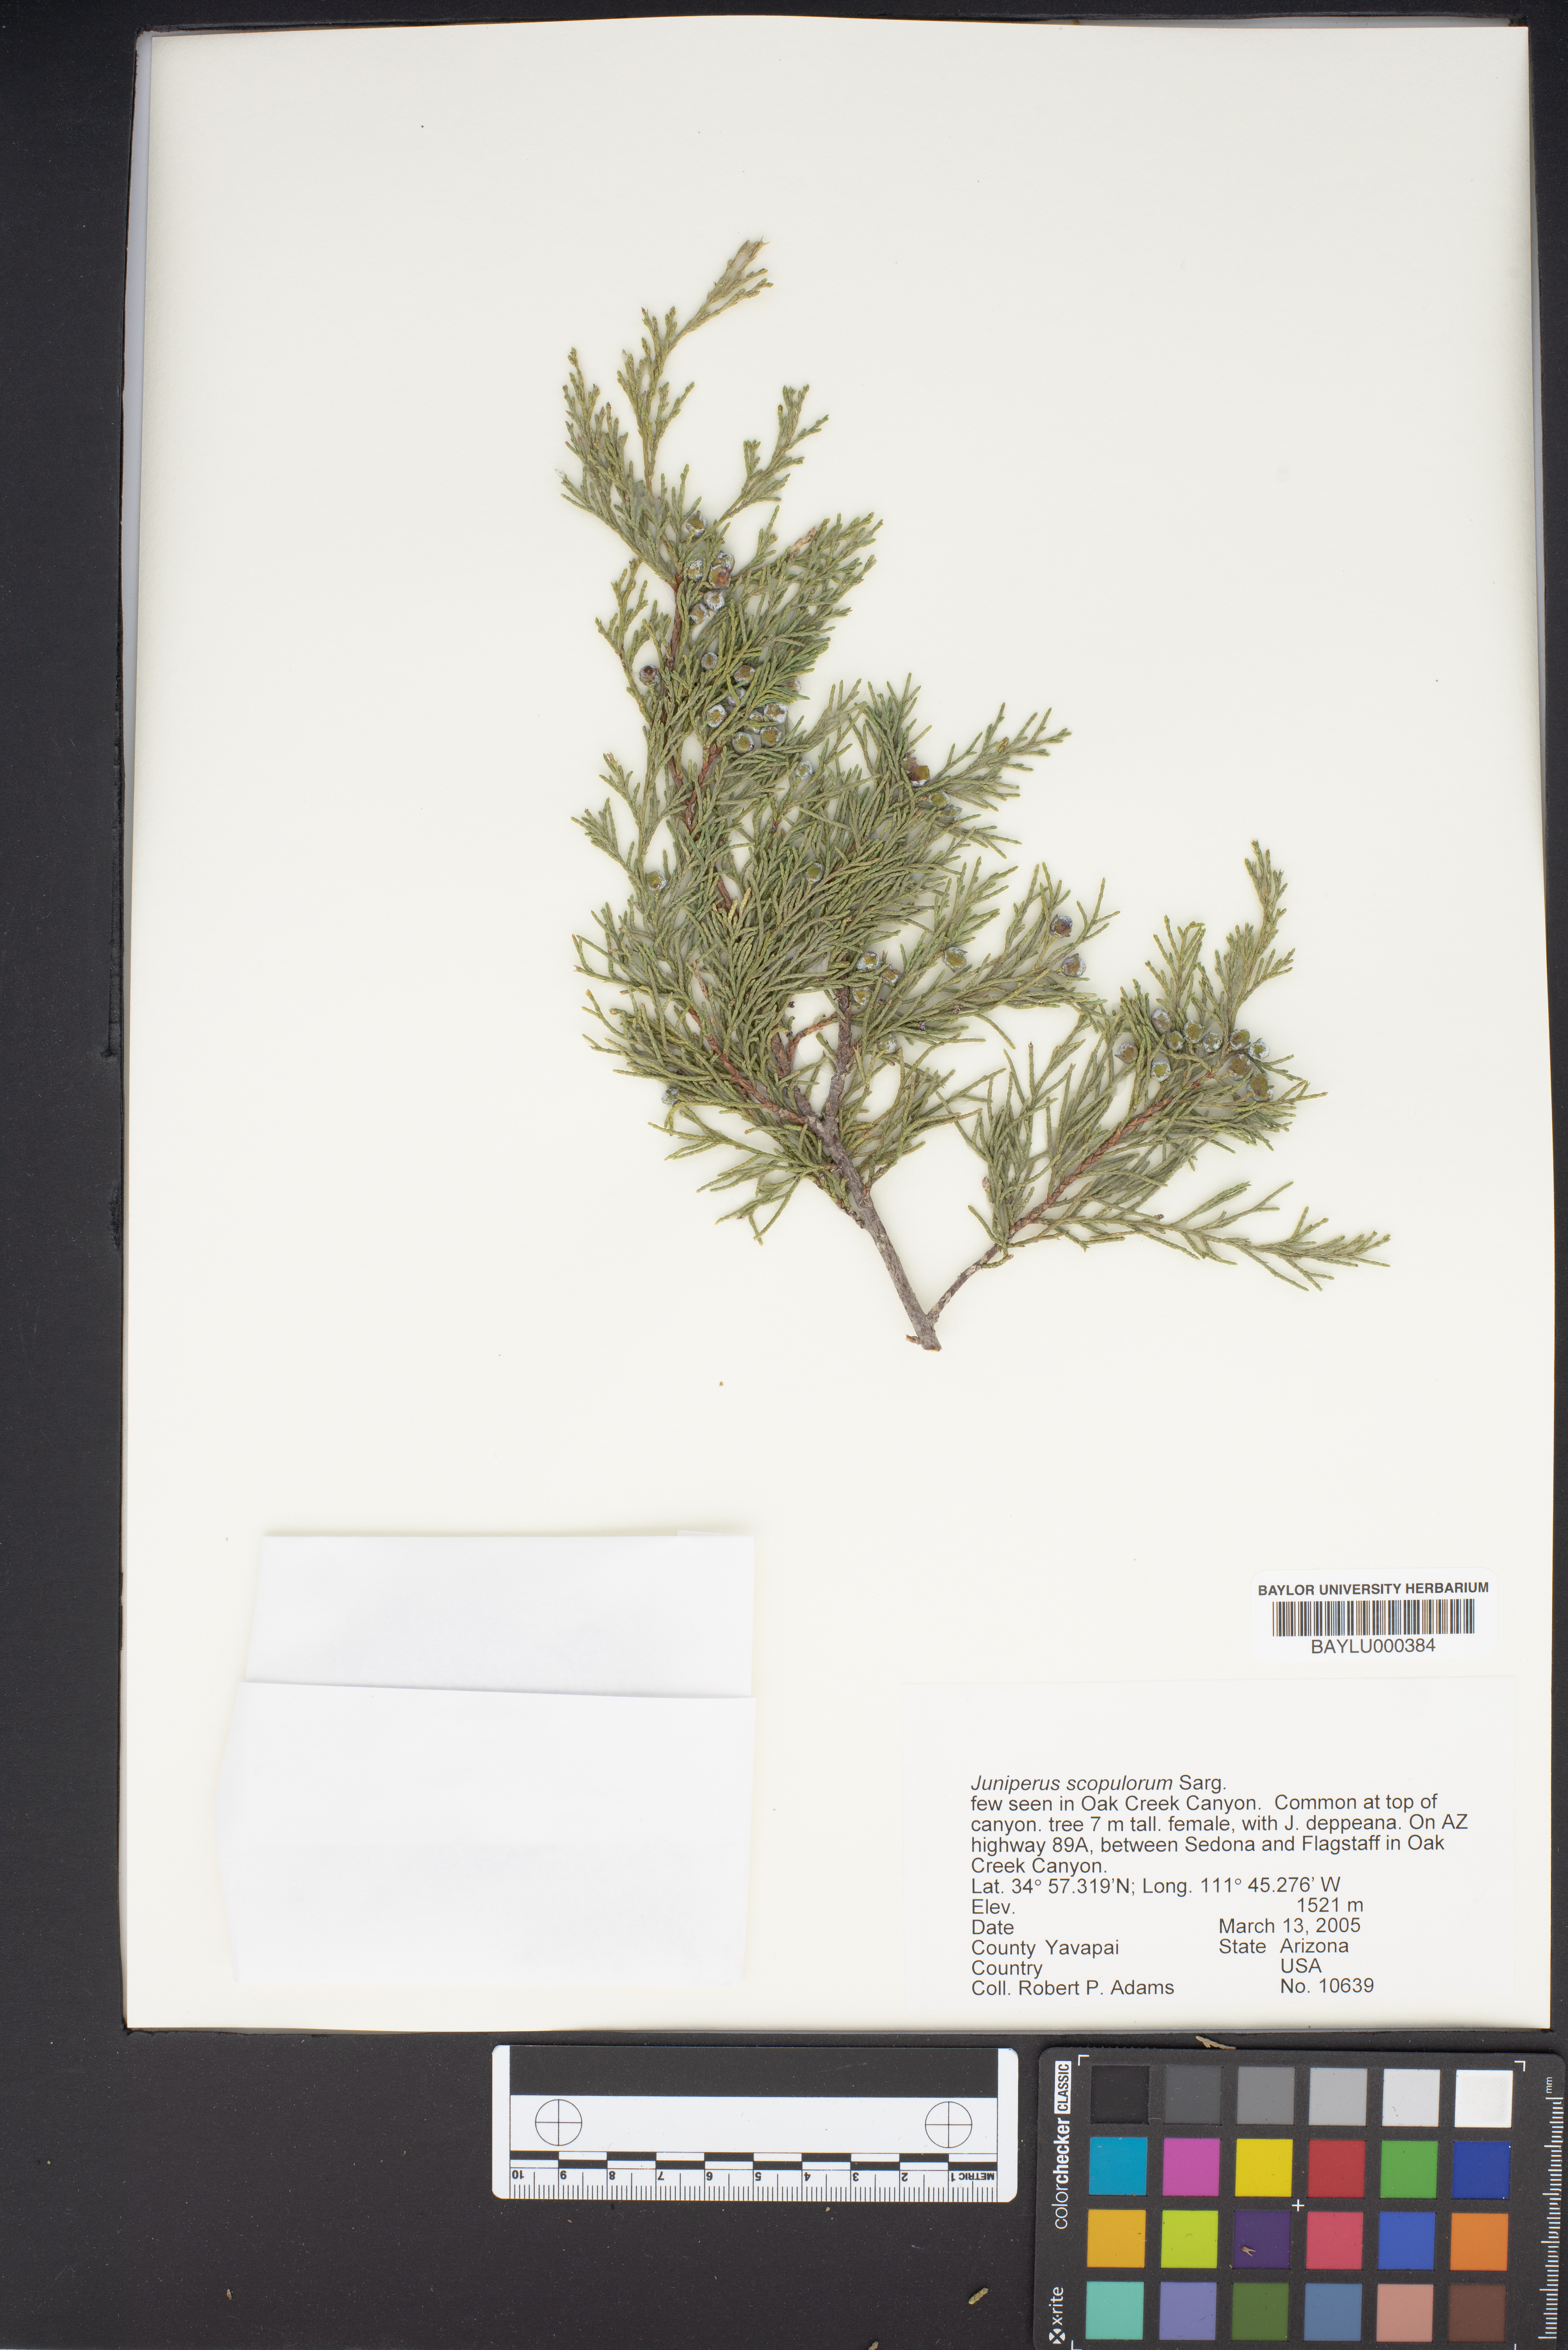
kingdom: Plantae
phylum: Tracheophyta
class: Pinopsida
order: Pinales
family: Cupressaceae
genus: Juniperus
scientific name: Juniperus scopulorum
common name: Rocky mountain juniper
